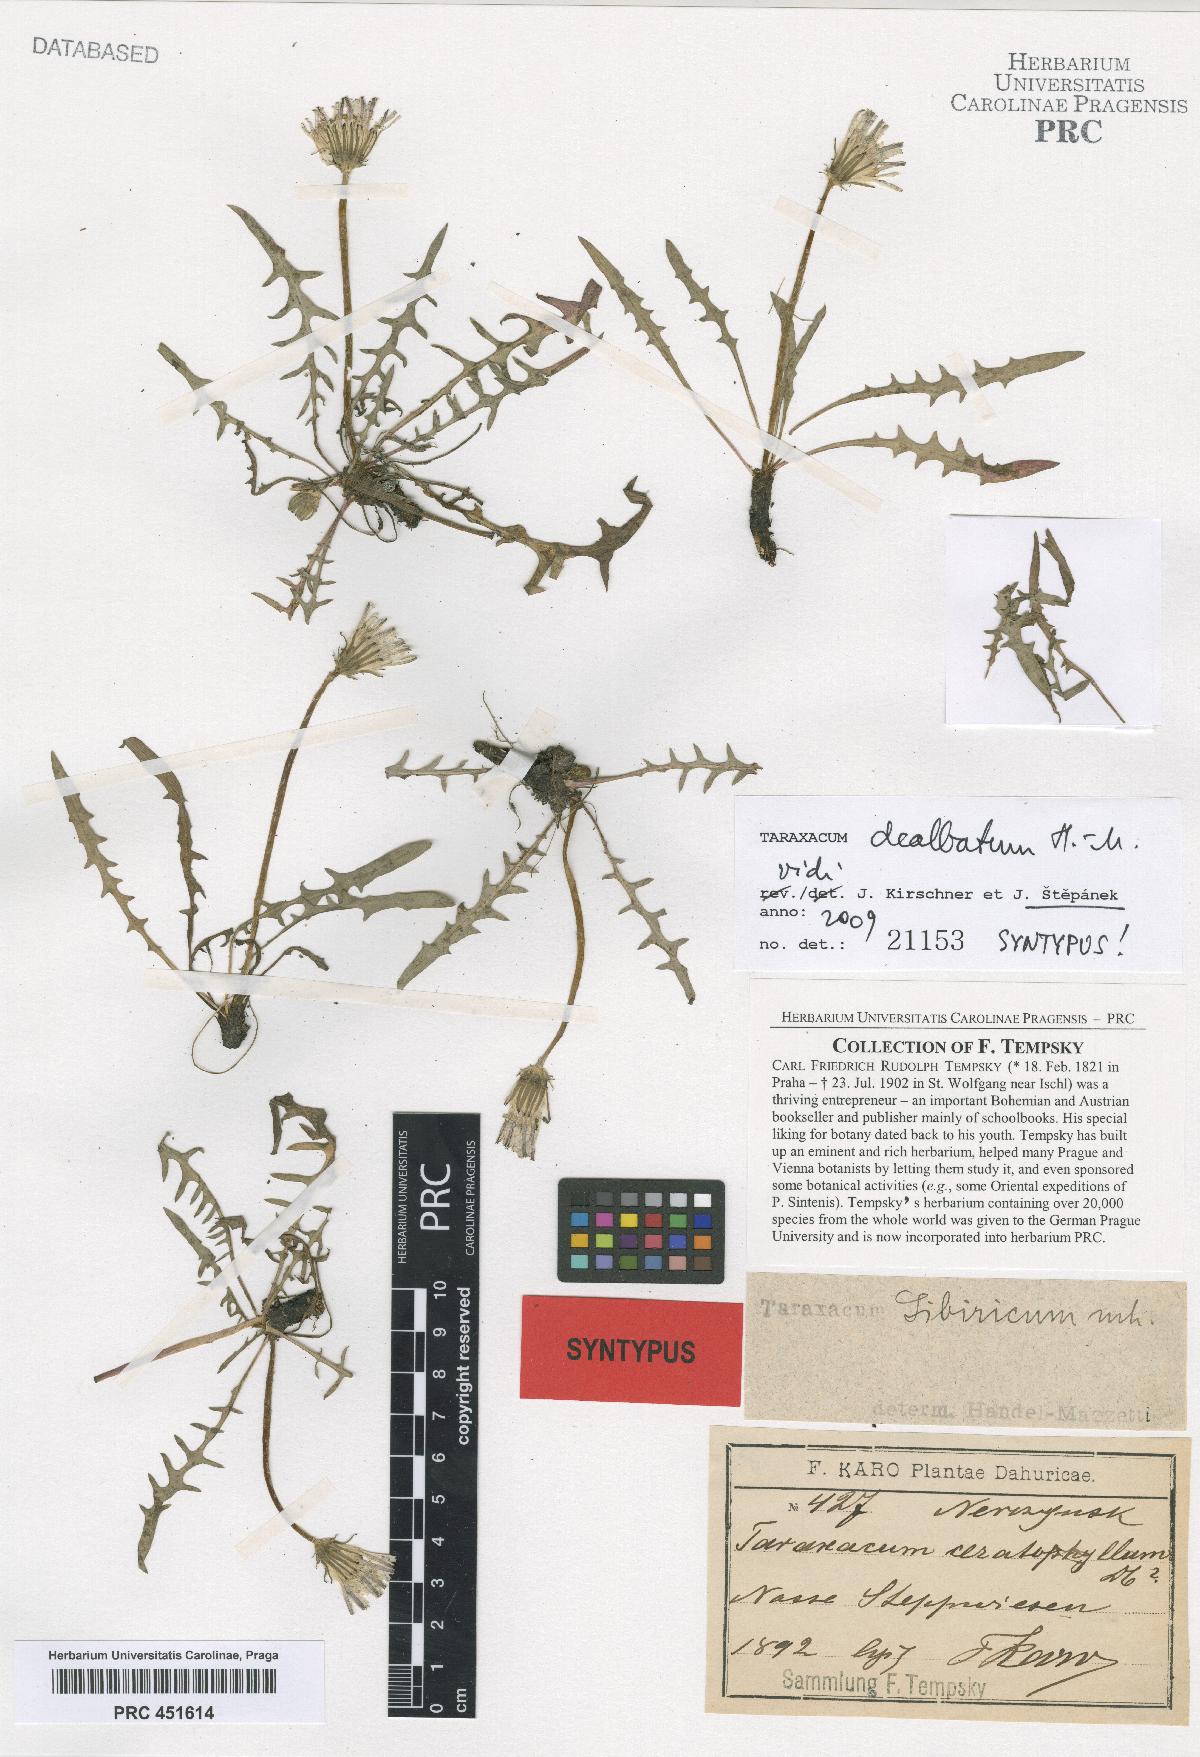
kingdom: Plantae
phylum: Tracheophyta
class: Magnoliopsida
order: Asterales
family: Asteraceae
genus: Taraxacum
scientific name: Taraxacum dealbatum
